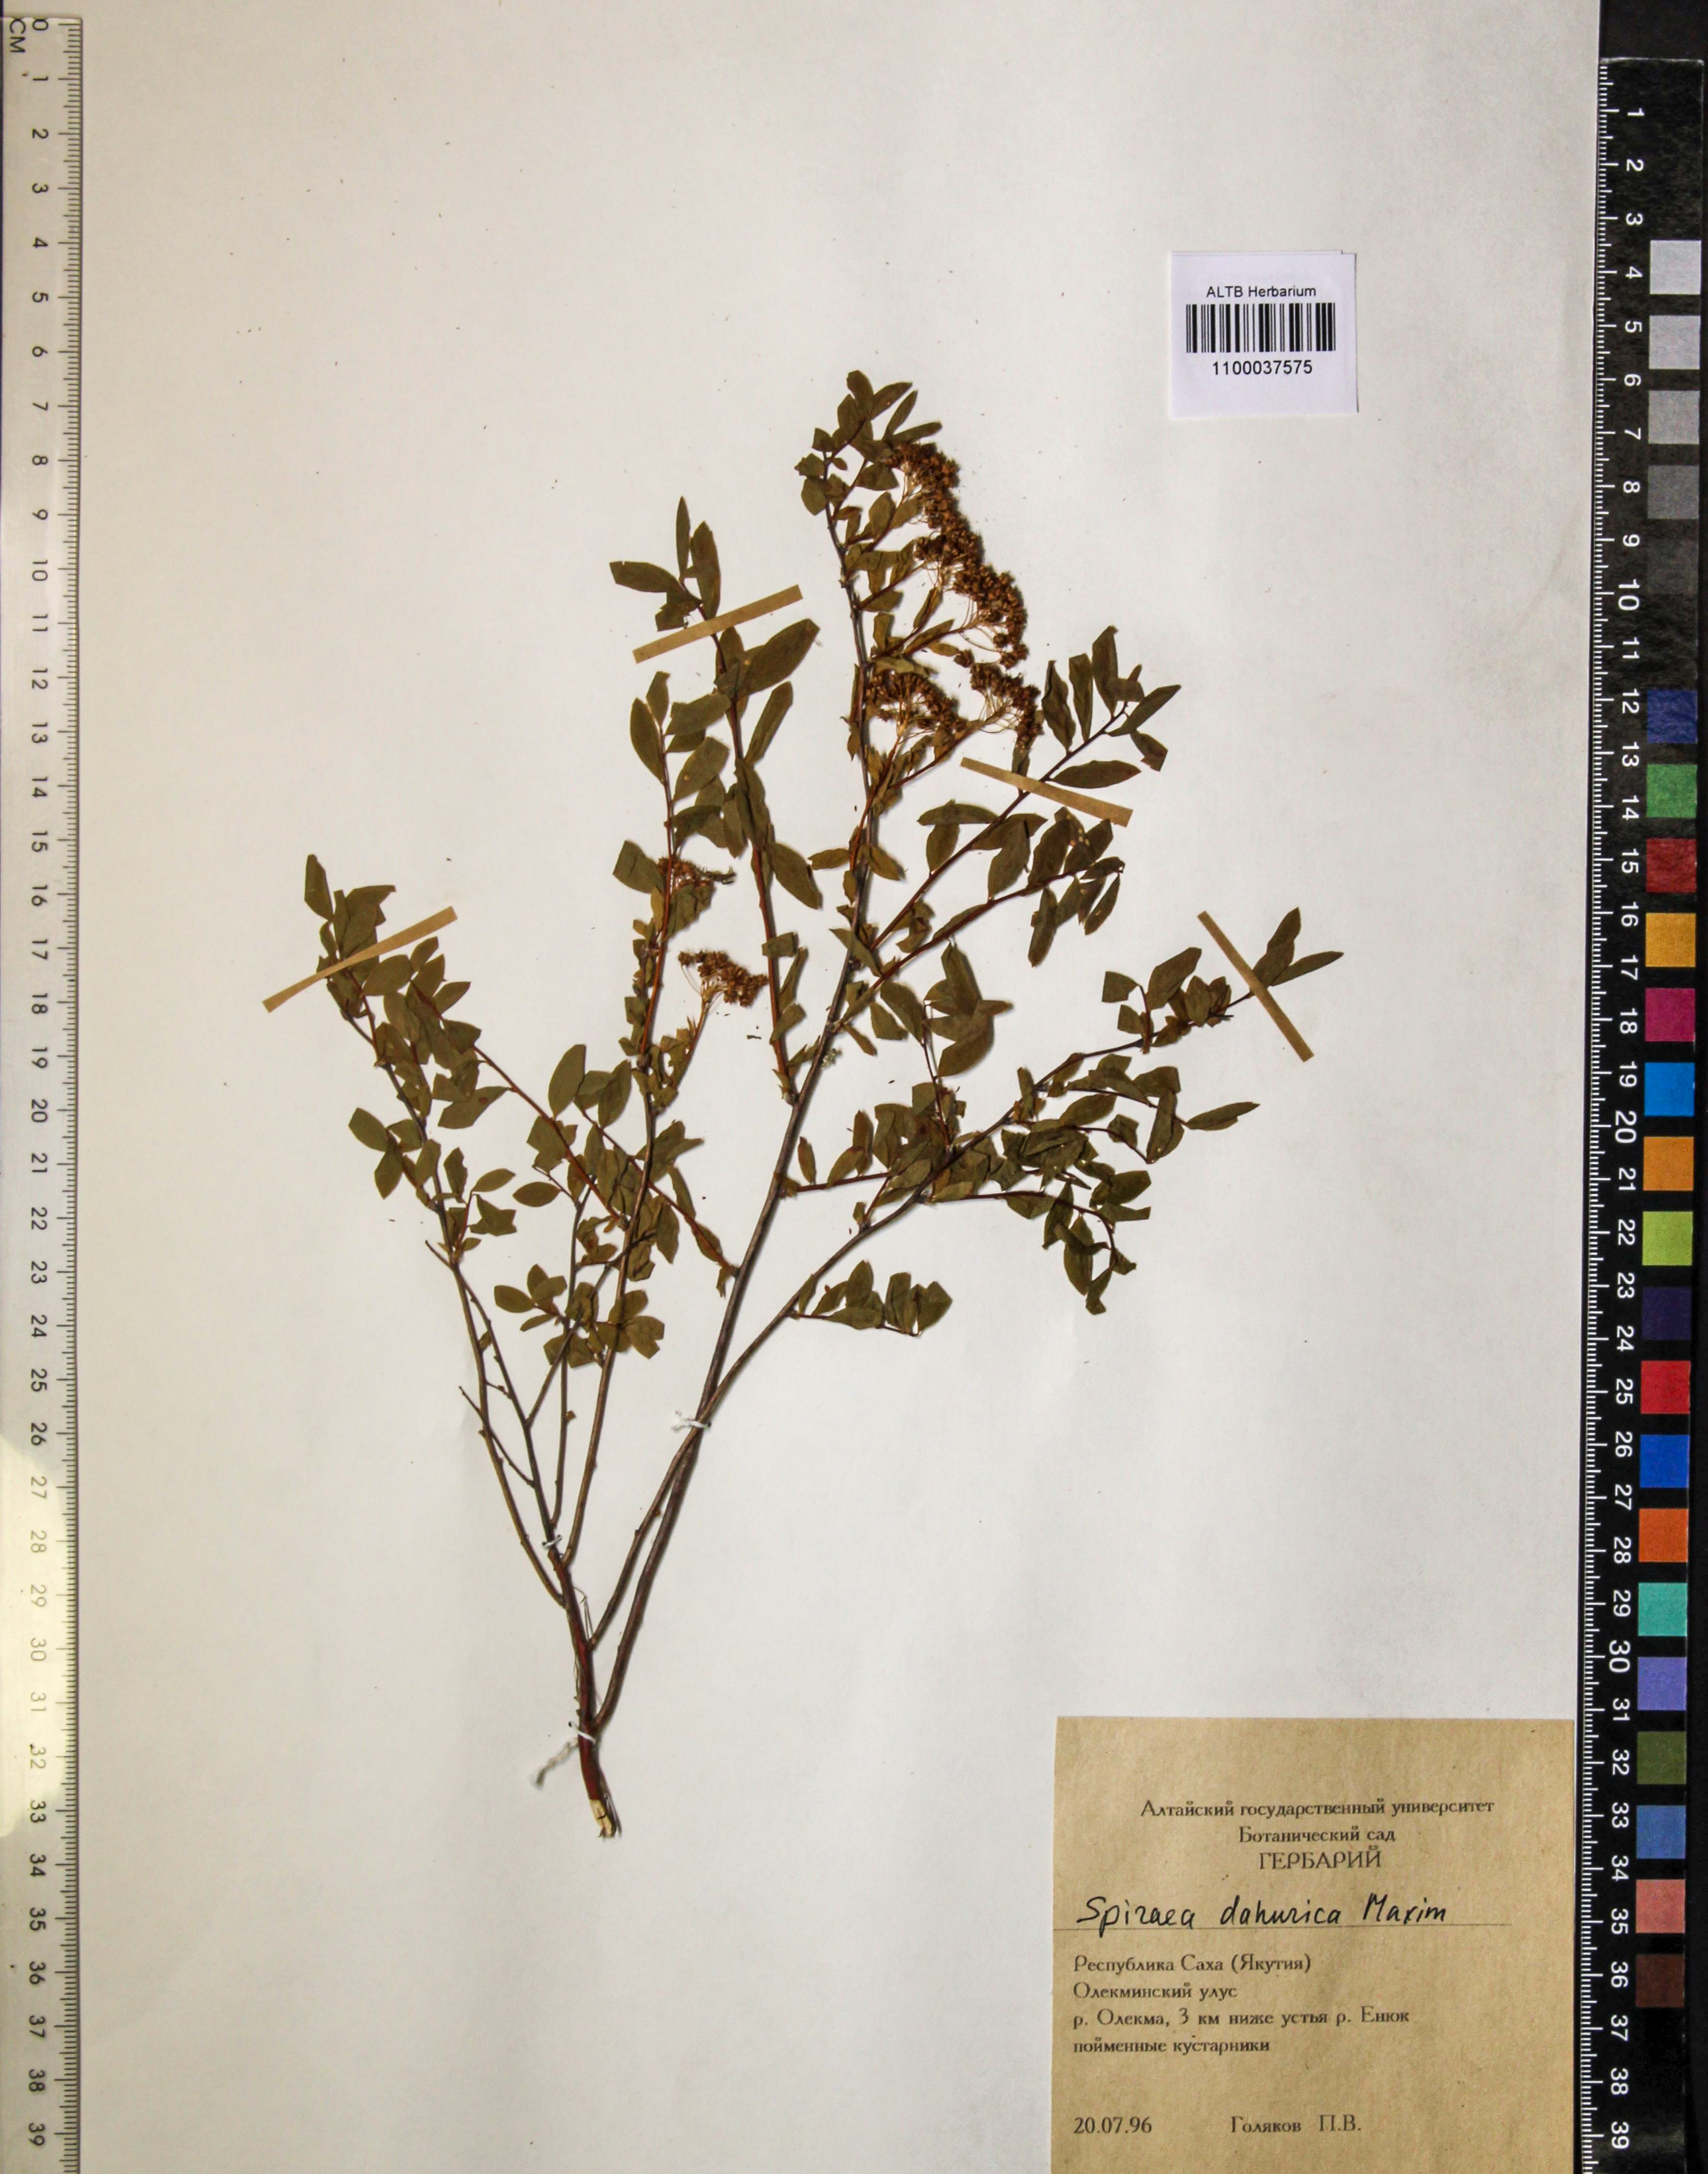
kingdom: Plantae
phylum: Tracheophyta
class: Magnoliopsida
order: Rosales
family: Rosaceae
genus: Spiraea
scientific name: Spiraea dahurica
